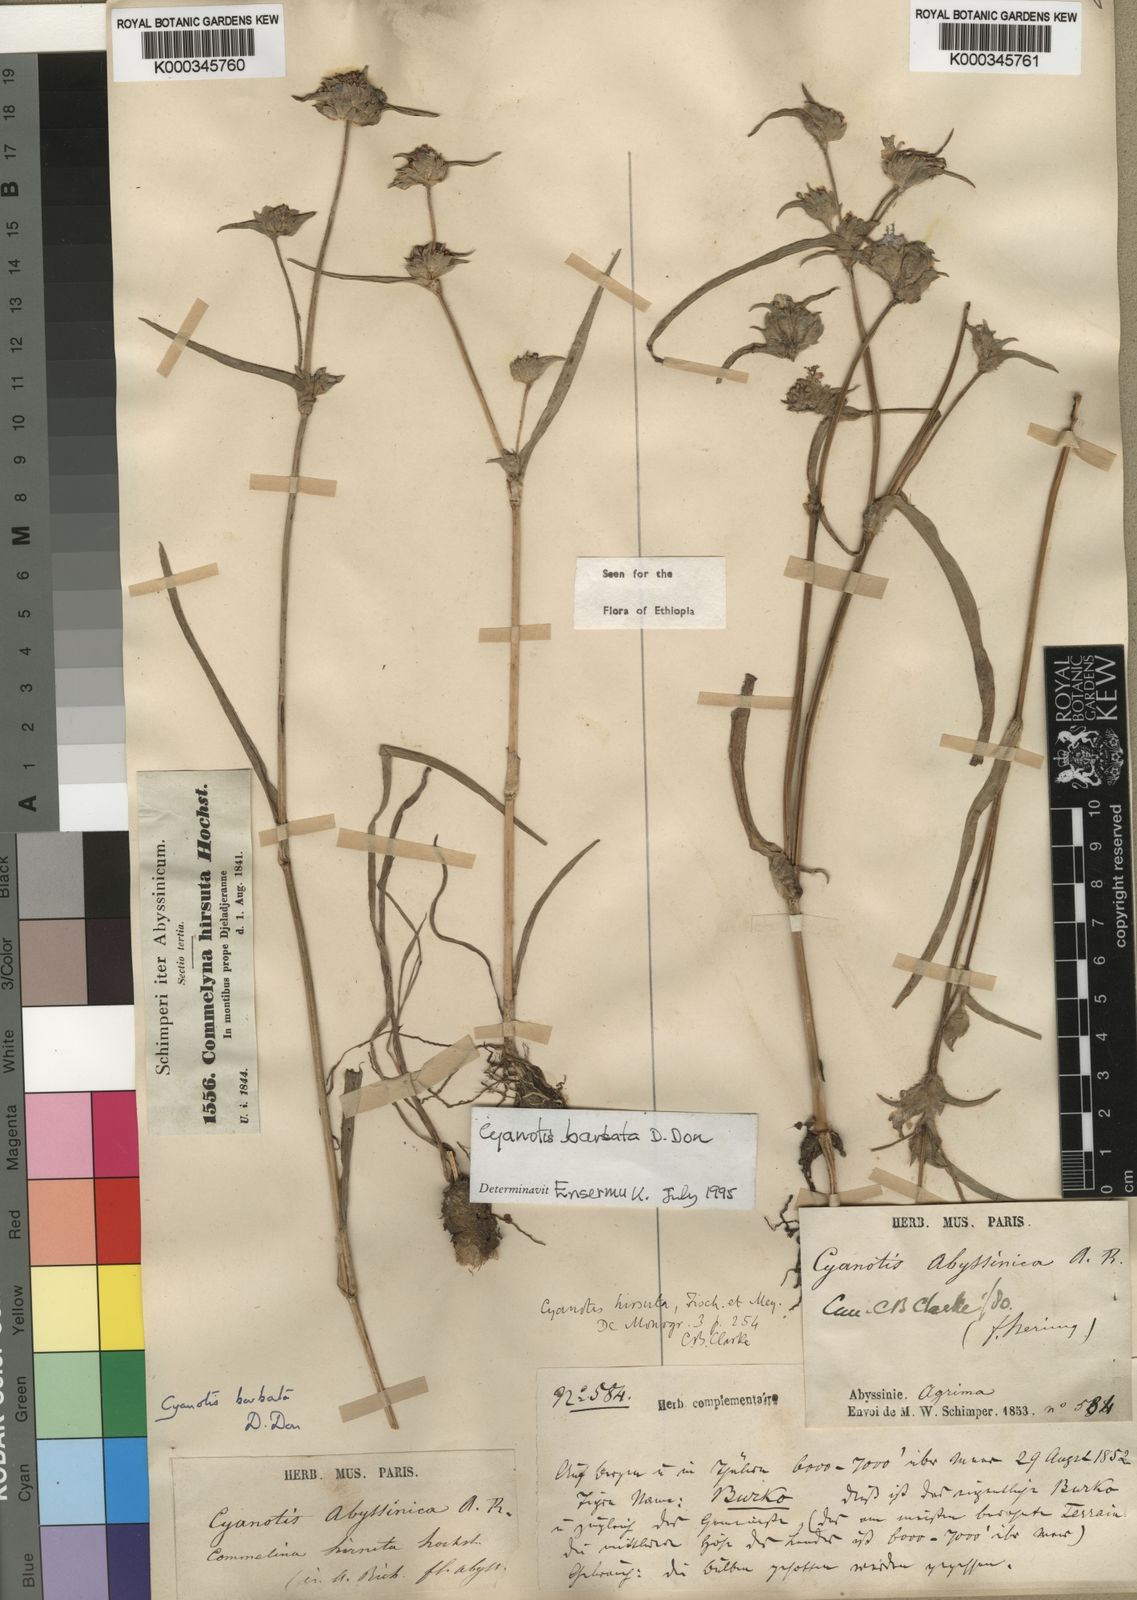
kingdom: Plantae
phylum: Tracheophyta
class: Liliopsida
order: Commelinales
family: Commelinaceae
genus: Cyanotis
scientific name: Cyanotis vaga
